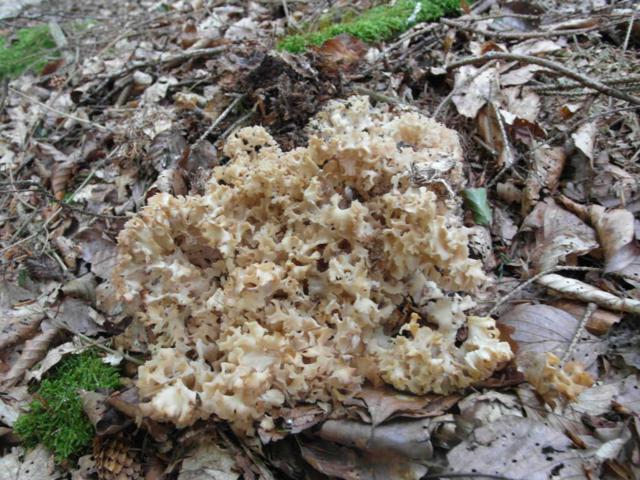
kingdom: Fungi
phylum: Basidiomycota
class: Agaricomycetes
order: Polyporales
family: Sparassidaceae
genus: Sparassis
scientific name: Sparassis crispa
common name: kruset blomkålssvamp
